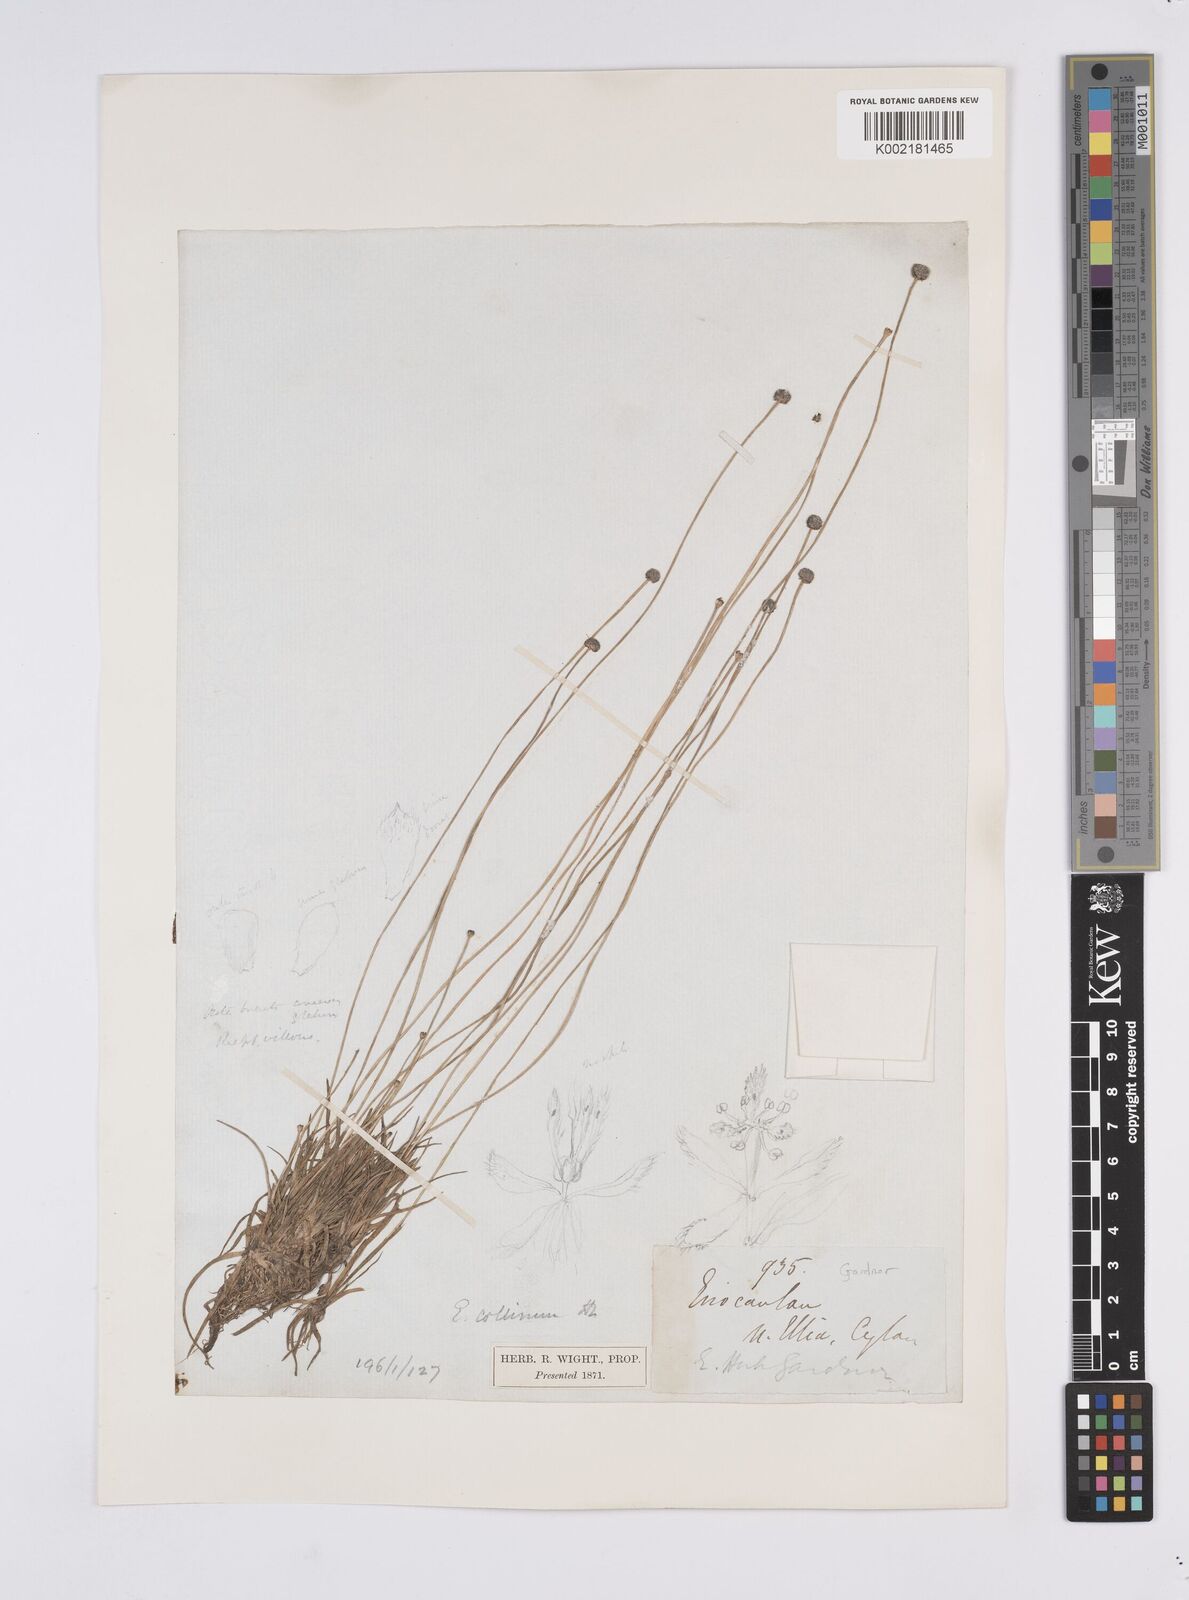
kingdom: Plantae
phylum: Tracheophyta
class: Liliopsida
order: Poales
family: Eriocaulaceae
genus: Eriocaulon
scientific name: Eriocaulon odoratum
